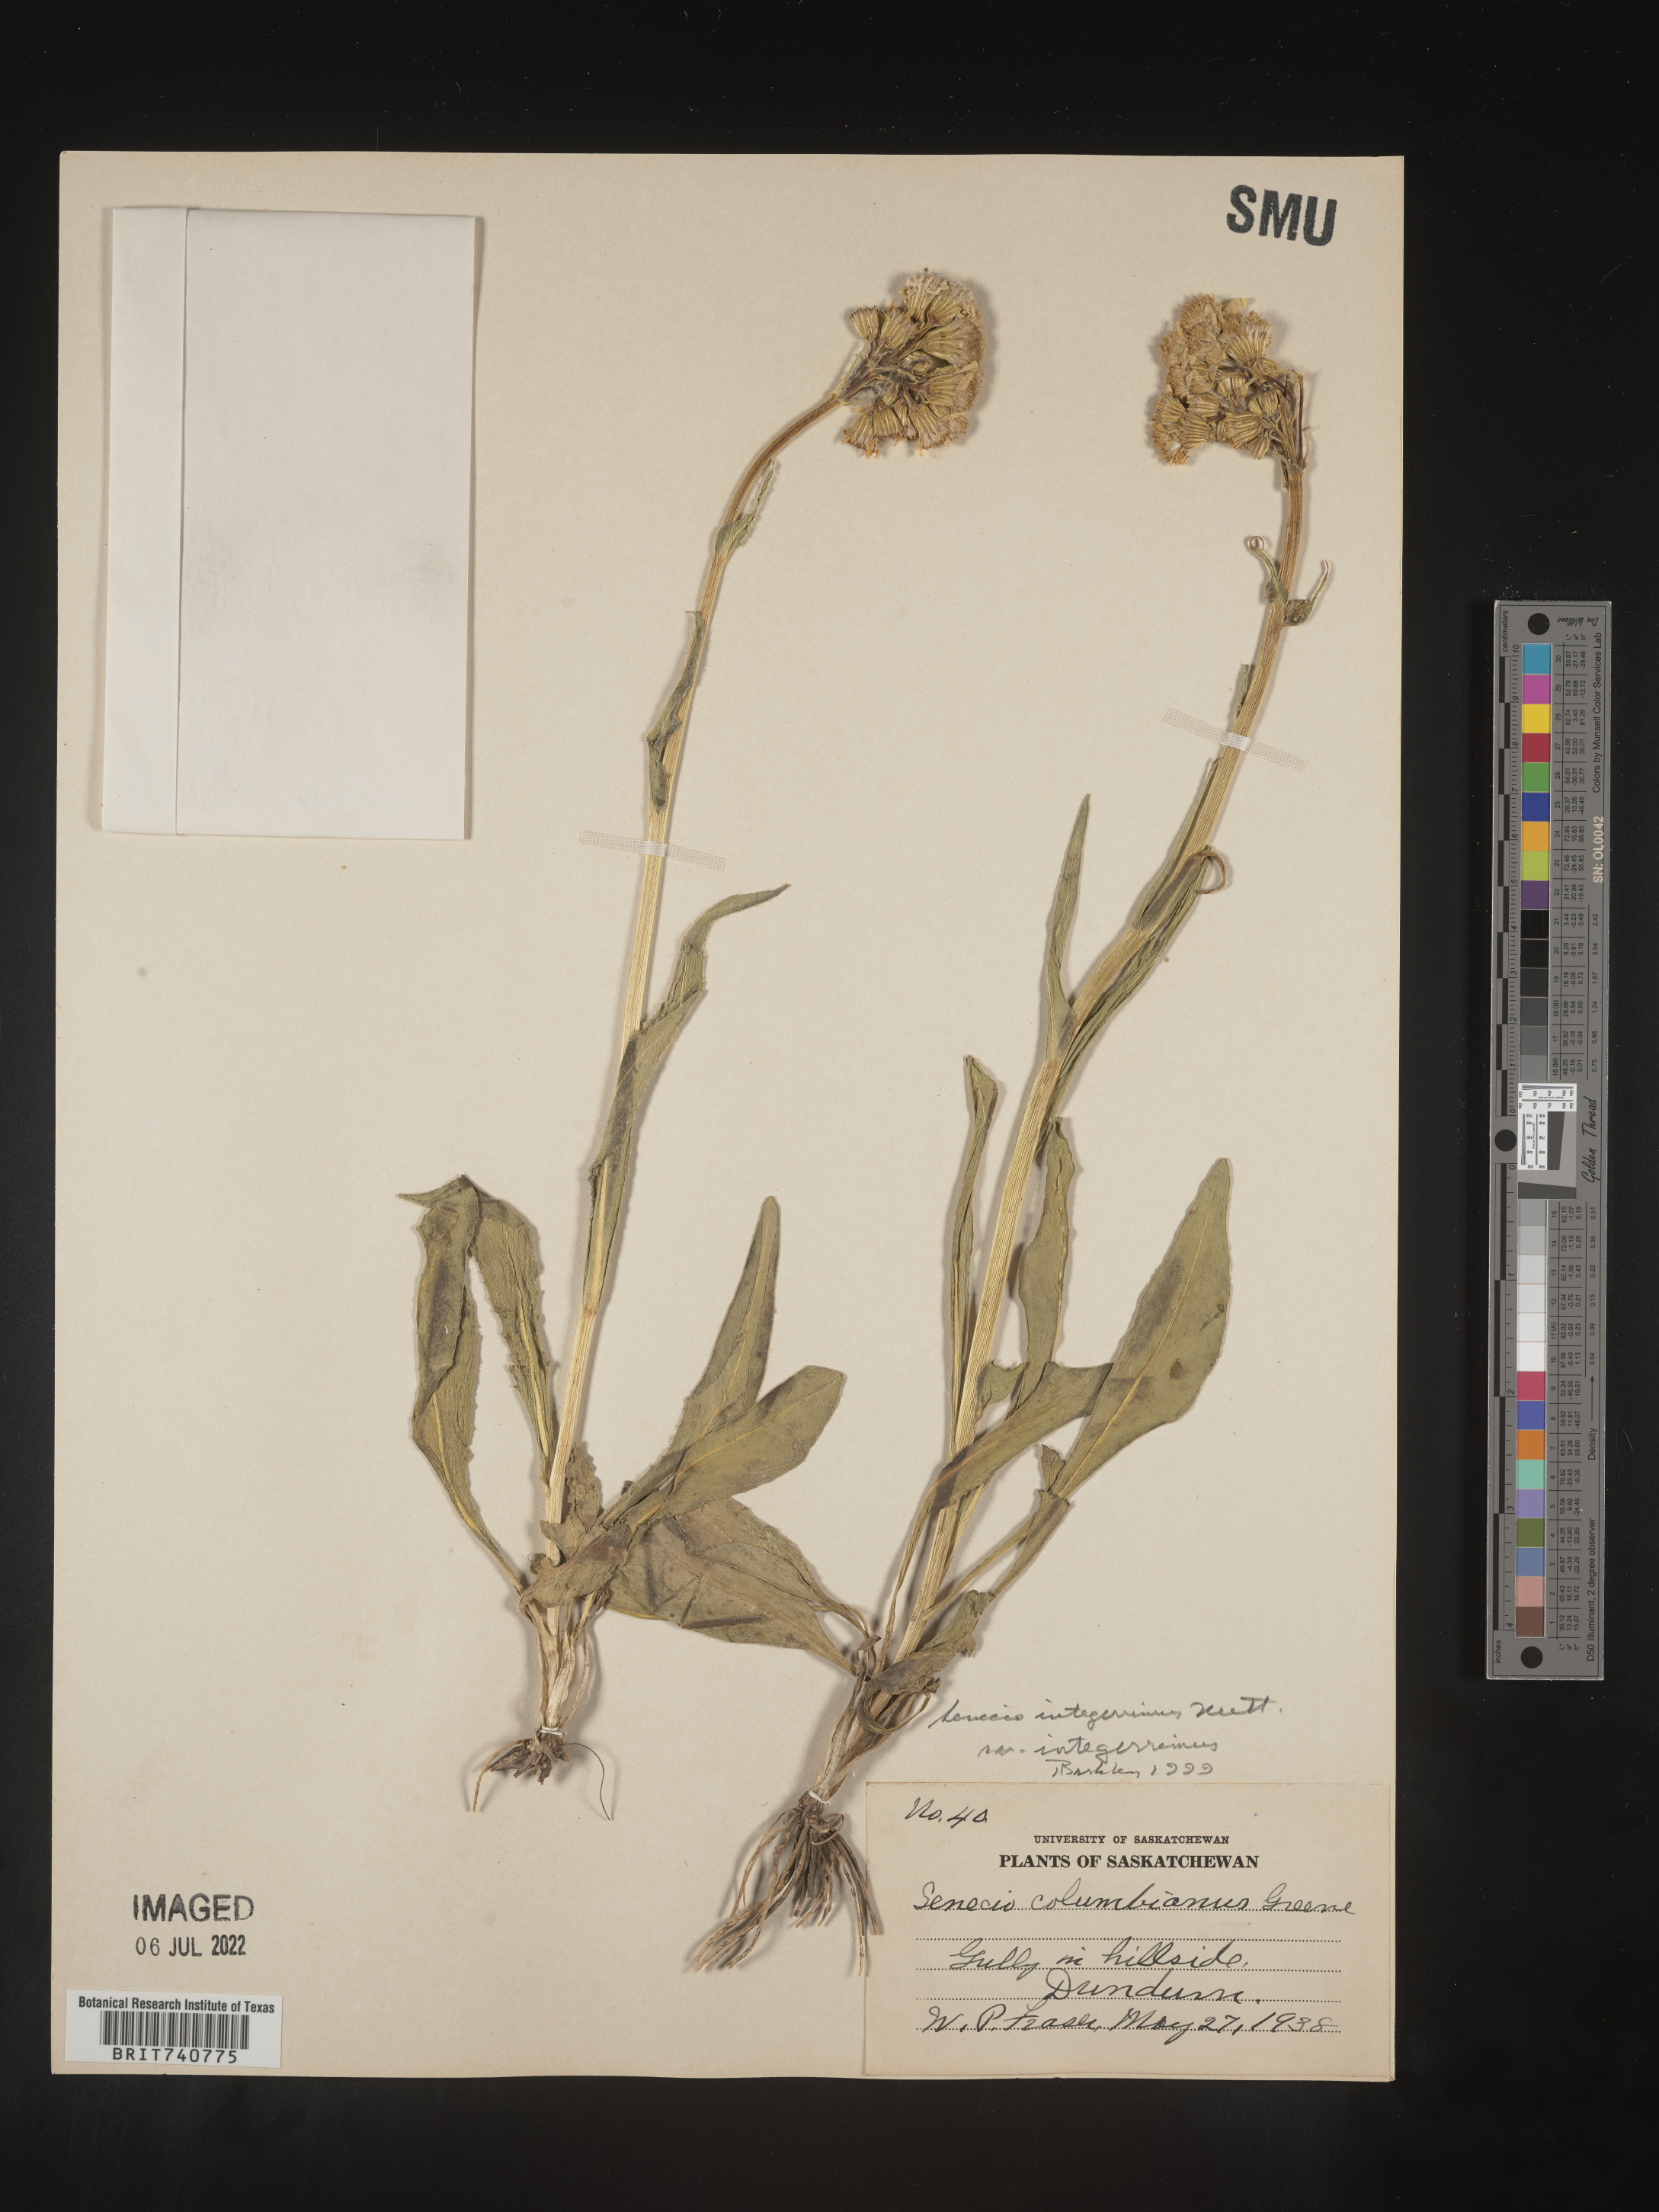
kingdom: Plantae
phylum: Tracheophyta
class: Magnoliopsida
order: Asterales
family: Asteraceae
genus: Senecio
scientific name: Senecio integerrimus
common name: Gaugeplant
